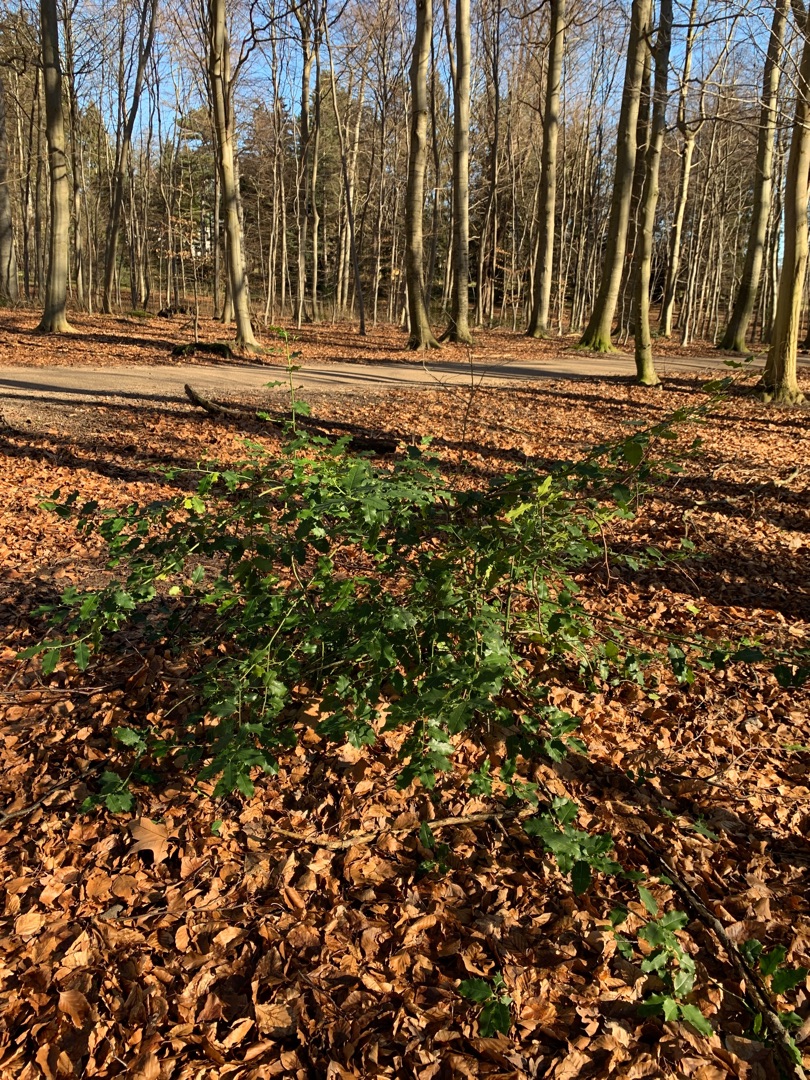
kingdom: Plantae
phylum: Tracheophyta
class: Magnoliopsida
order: Aquifoliales
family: Aquifoliaceae
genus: Ilex
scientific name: Ilex aquifolium
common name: Kristtorn
